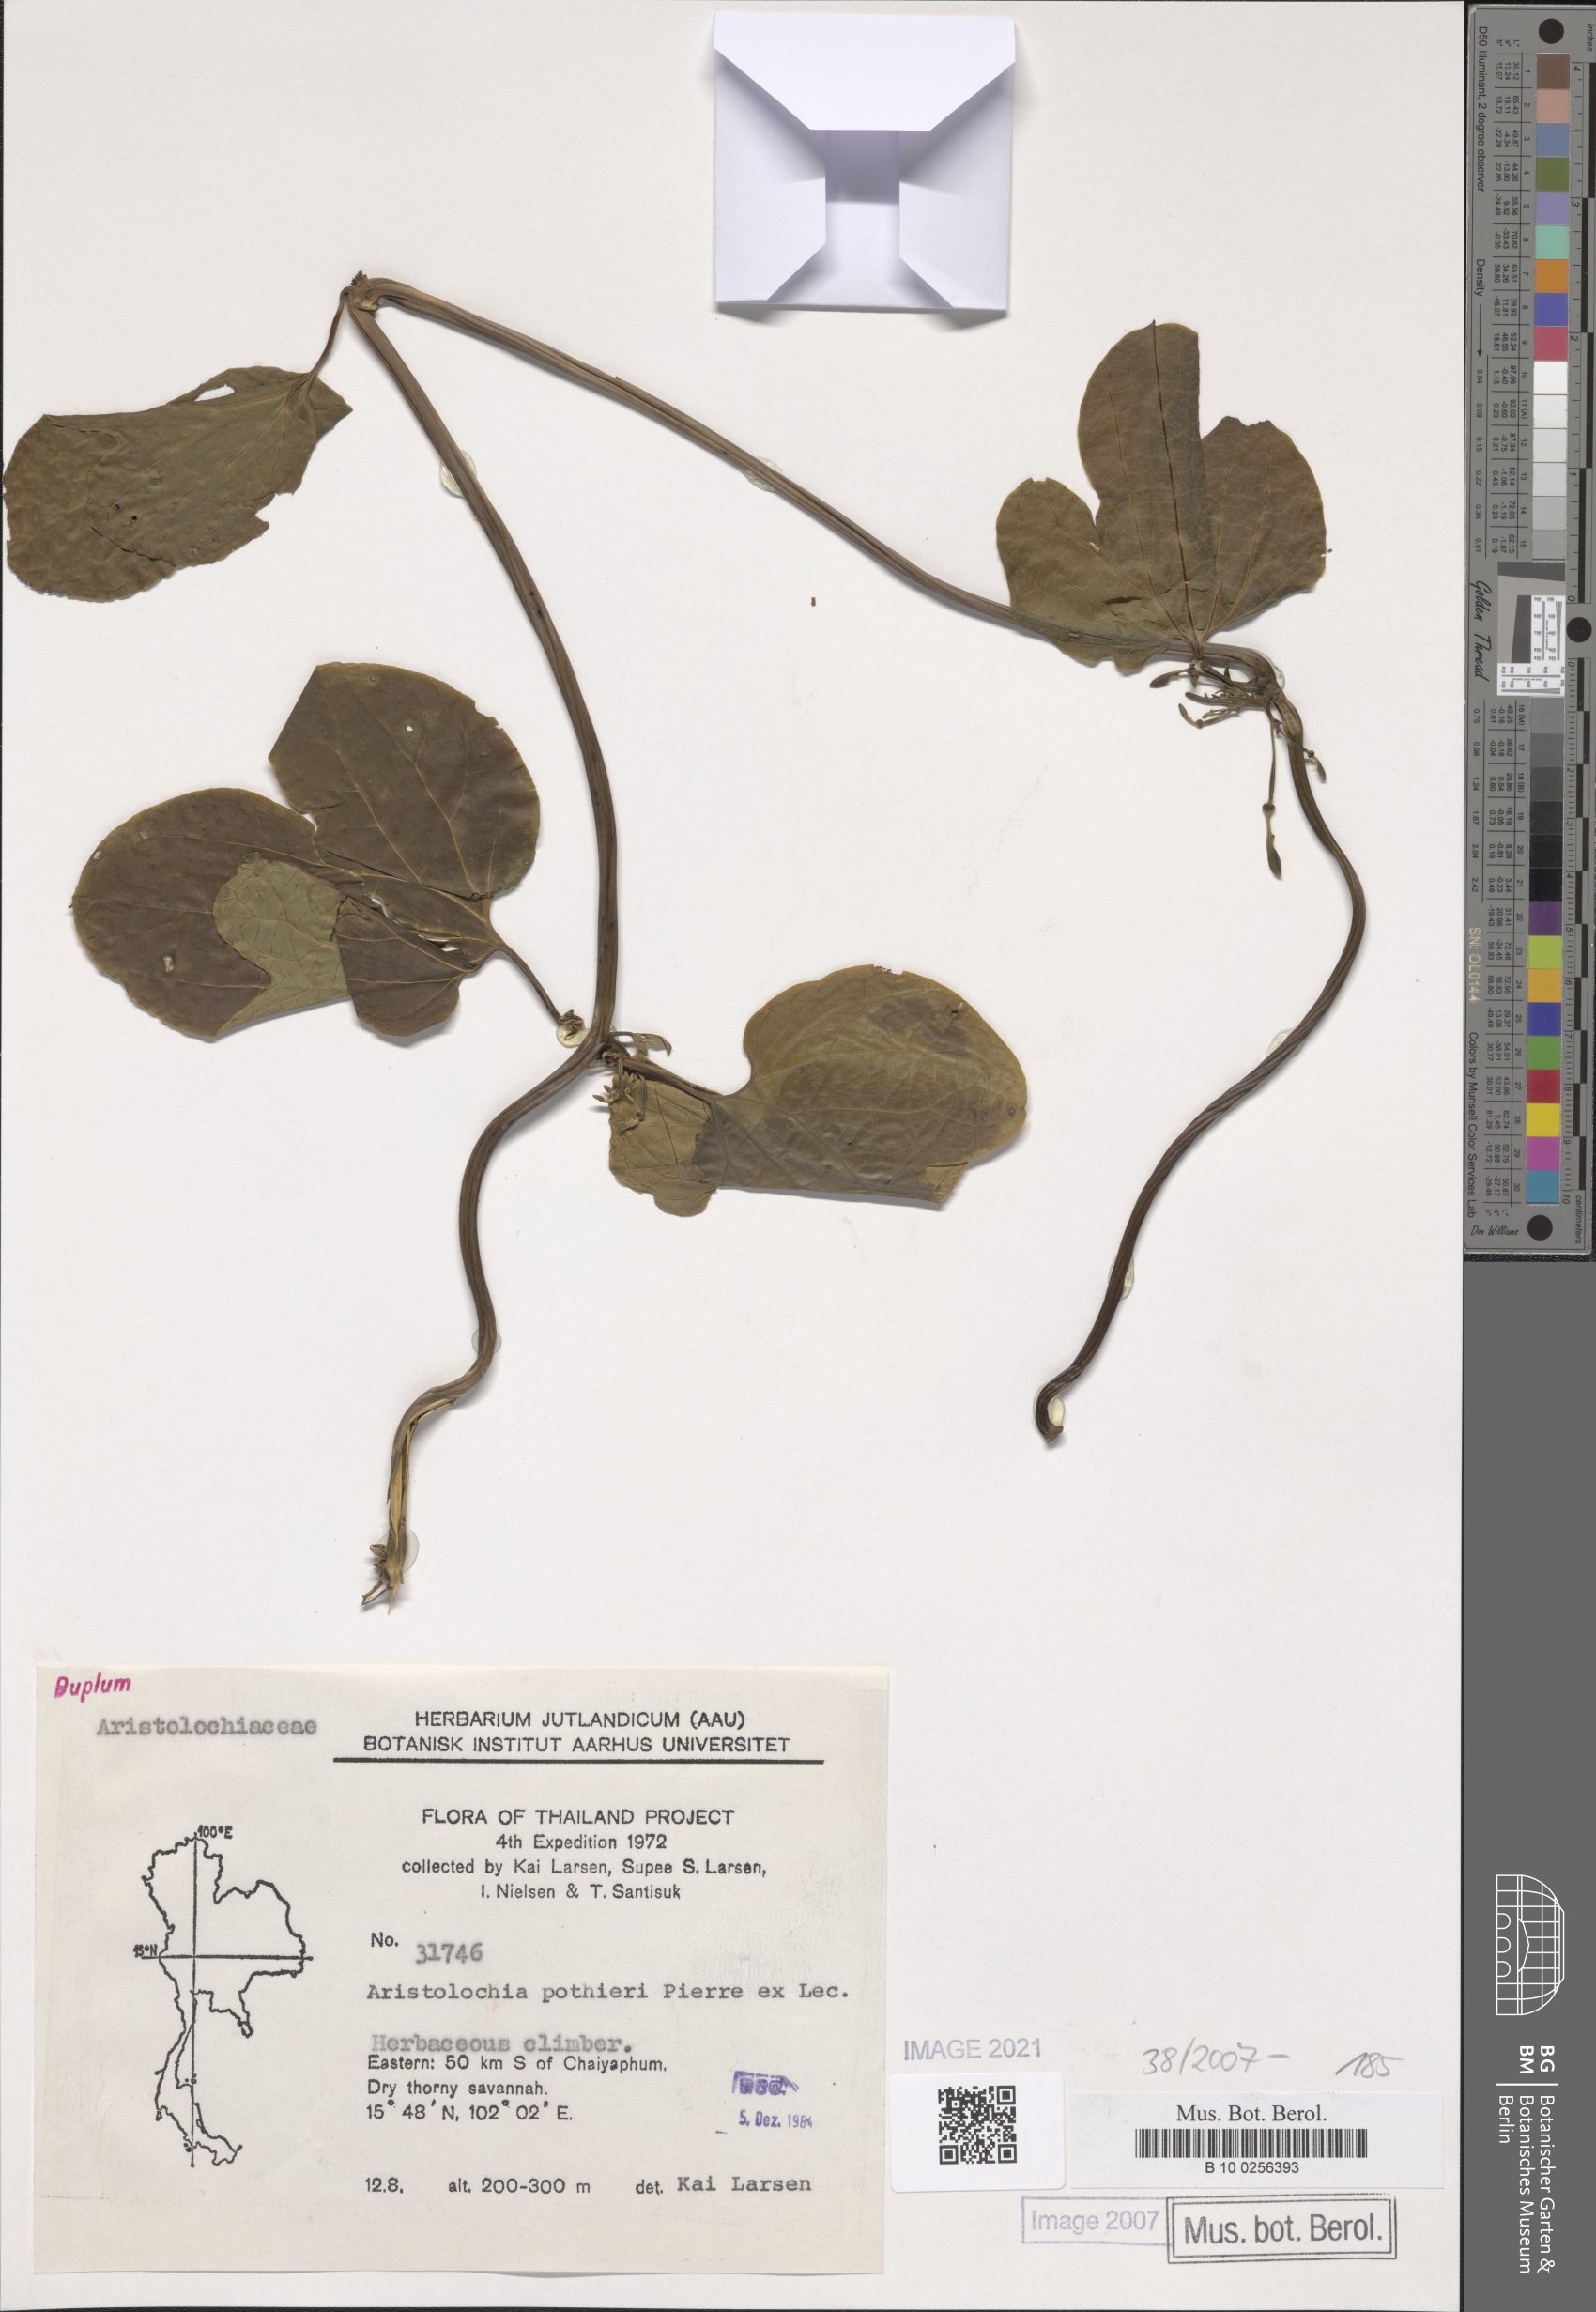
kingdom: Plantae
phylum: Tracheophyta
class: Magnoliopsida
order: Piperales
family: Aristolochiaceae
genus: Aristolochia
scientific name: Aristolochia pothieri
